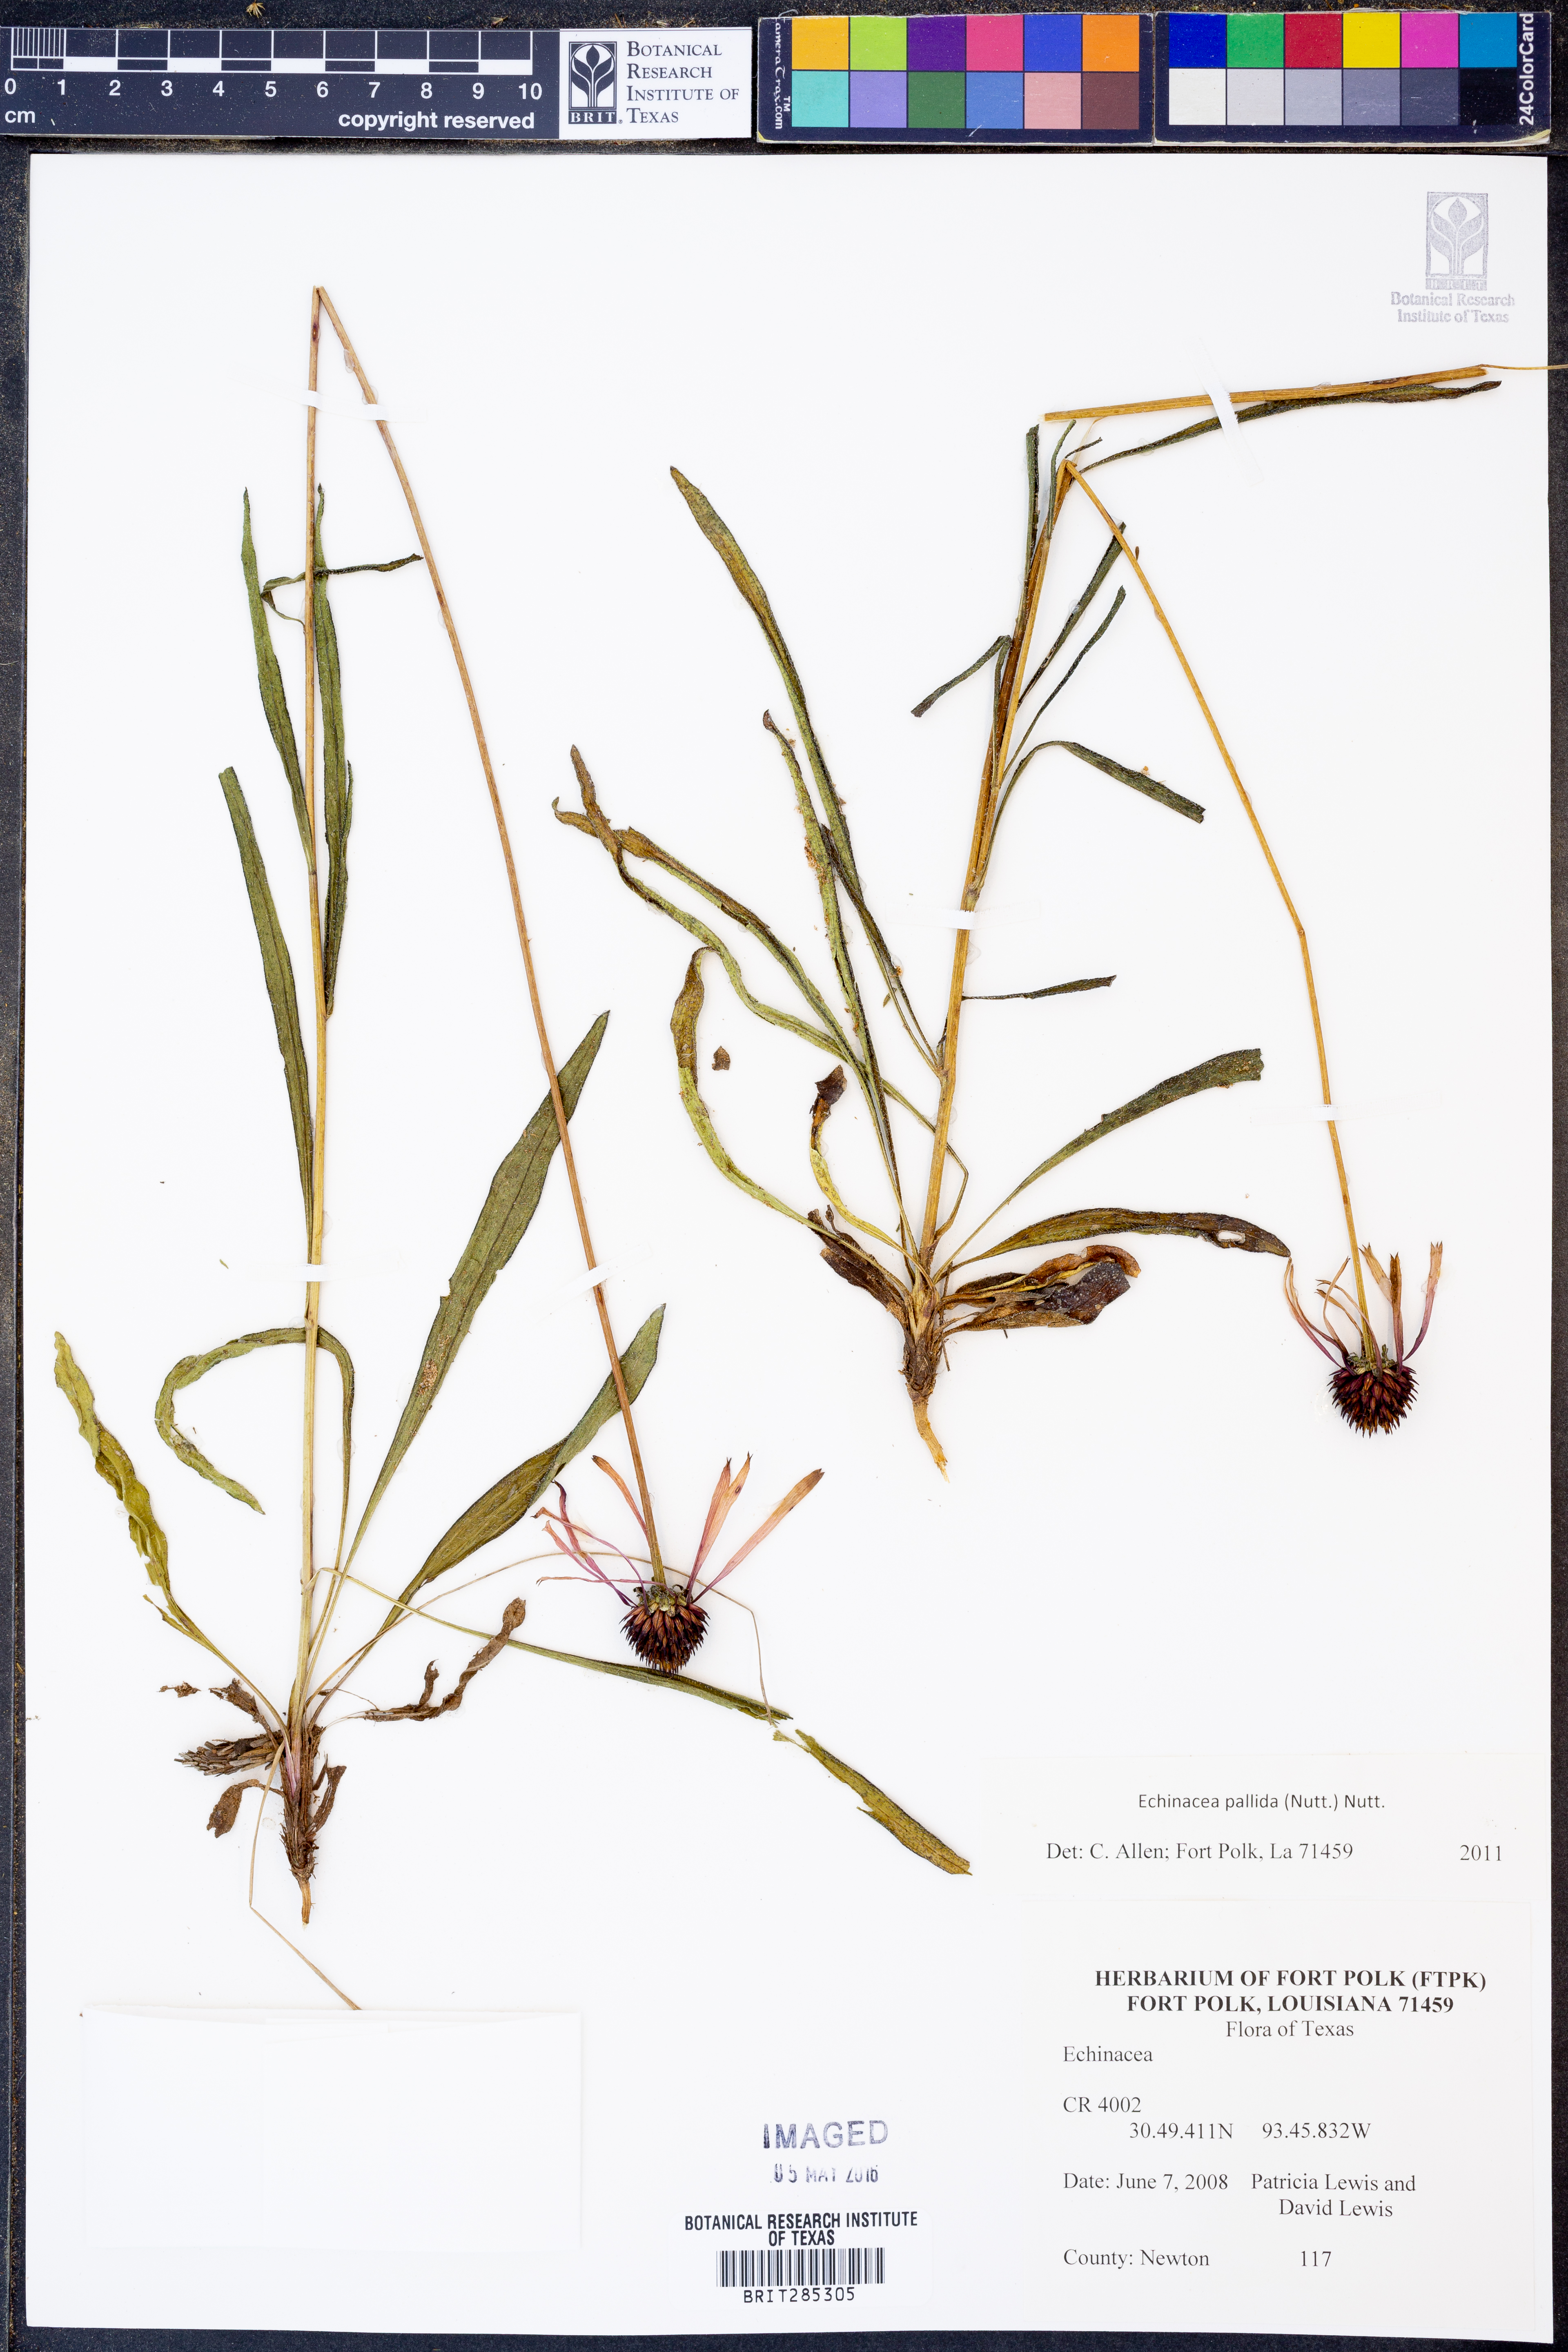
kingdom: Plantae
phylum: Tracheophyta
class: Magnoliopsida
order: Asterales
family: Asteraceae
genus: Echinacea
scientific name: Echinacea pallida
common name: Pale echinacea
